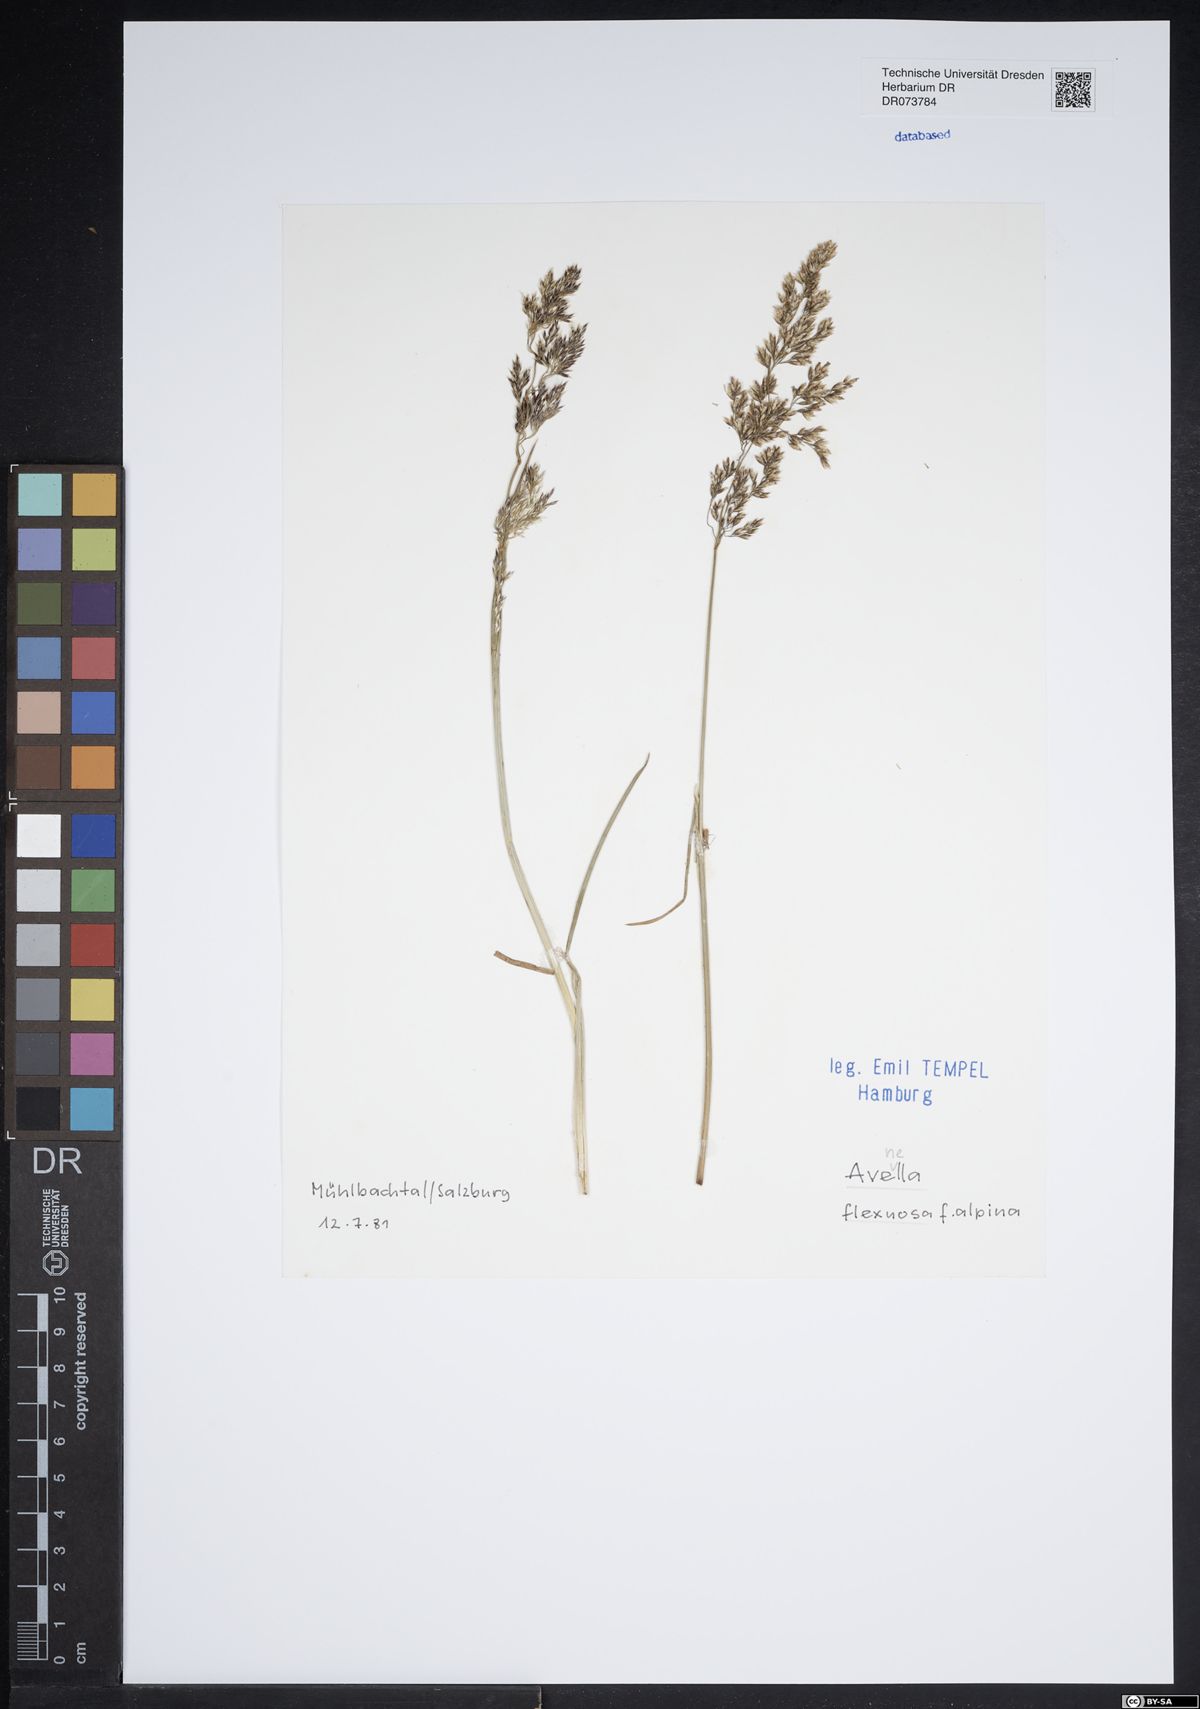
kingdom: Plantae
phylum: Tracheophyta
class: Liliopsida
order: Poales
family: Poaceae
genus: Avenella
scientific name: Avenella flexuosa
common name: Wavy hairgrass
